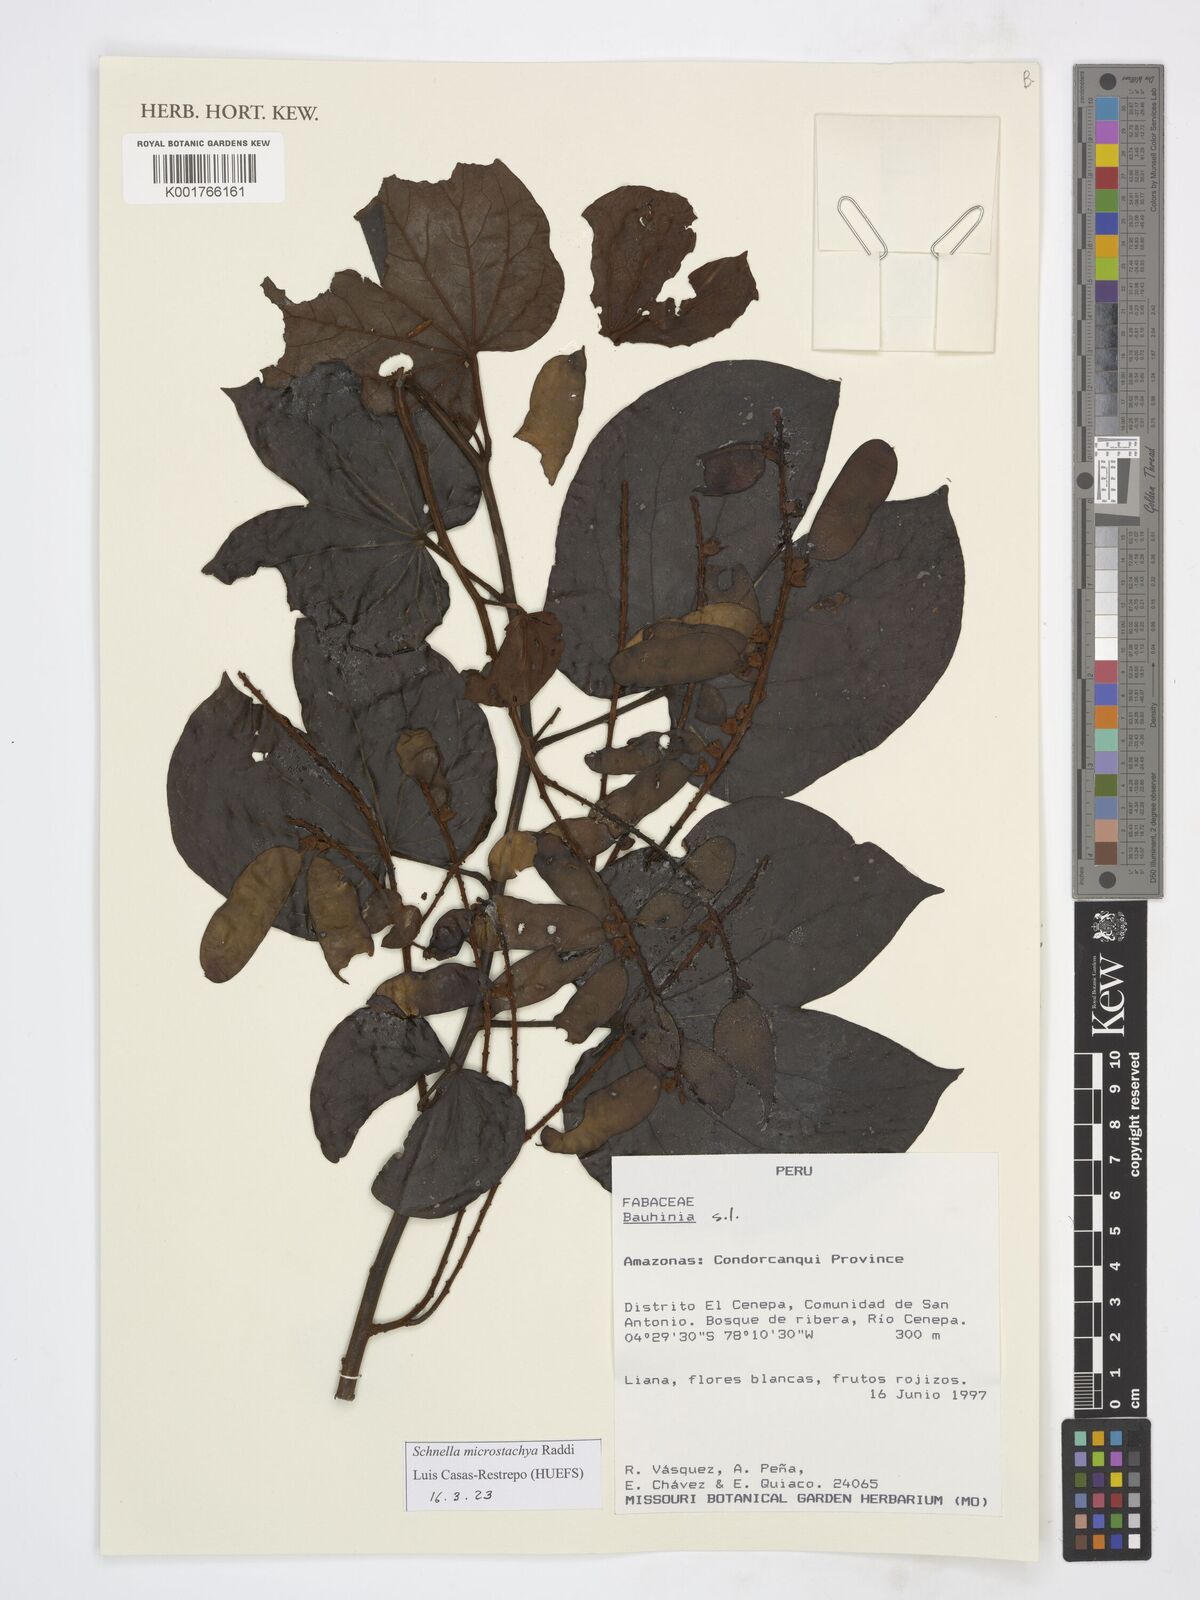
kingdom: Plantae
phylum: Tracheophyta
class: Magnoliopsida
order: Fabales
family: Fabaceae
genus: Schnella
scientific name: Schnella microstachya
